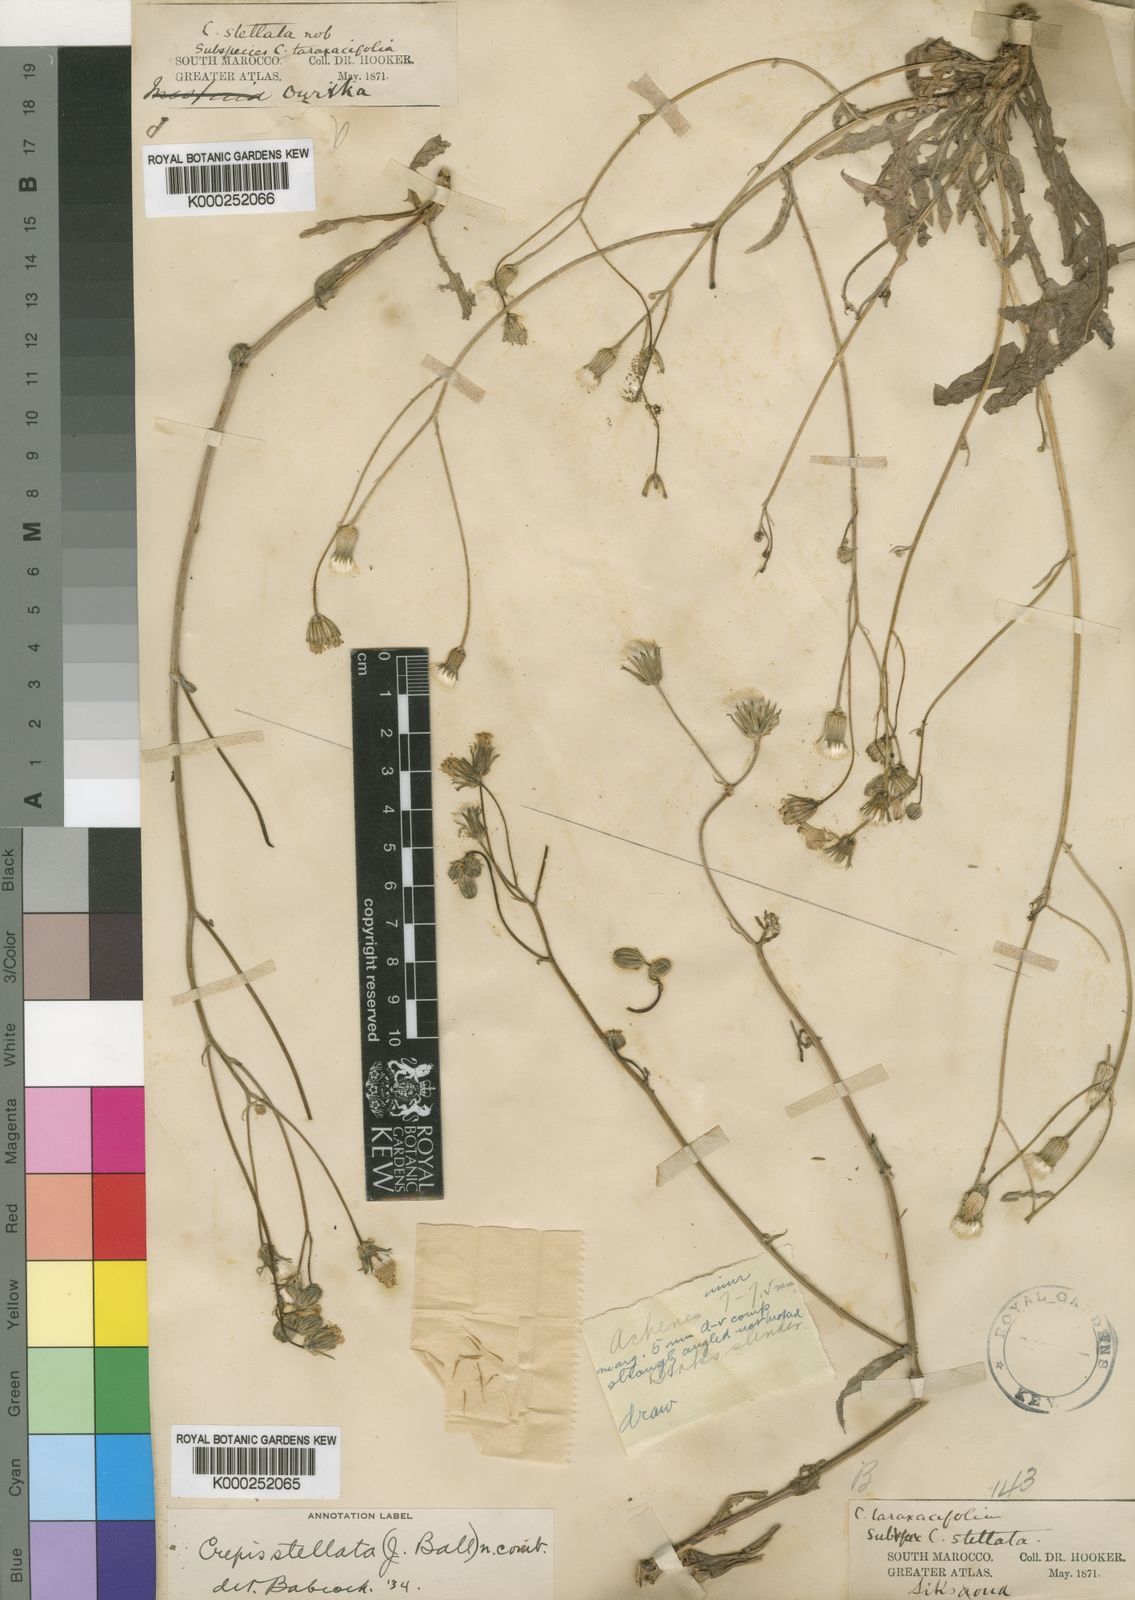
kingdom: Plantae
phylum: Tracheophyta
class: Magnoliopsida
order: Asterales
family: Asteraceae
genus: Crepis
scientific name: Crepis vesicaria
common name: Beaked hawksbeard
